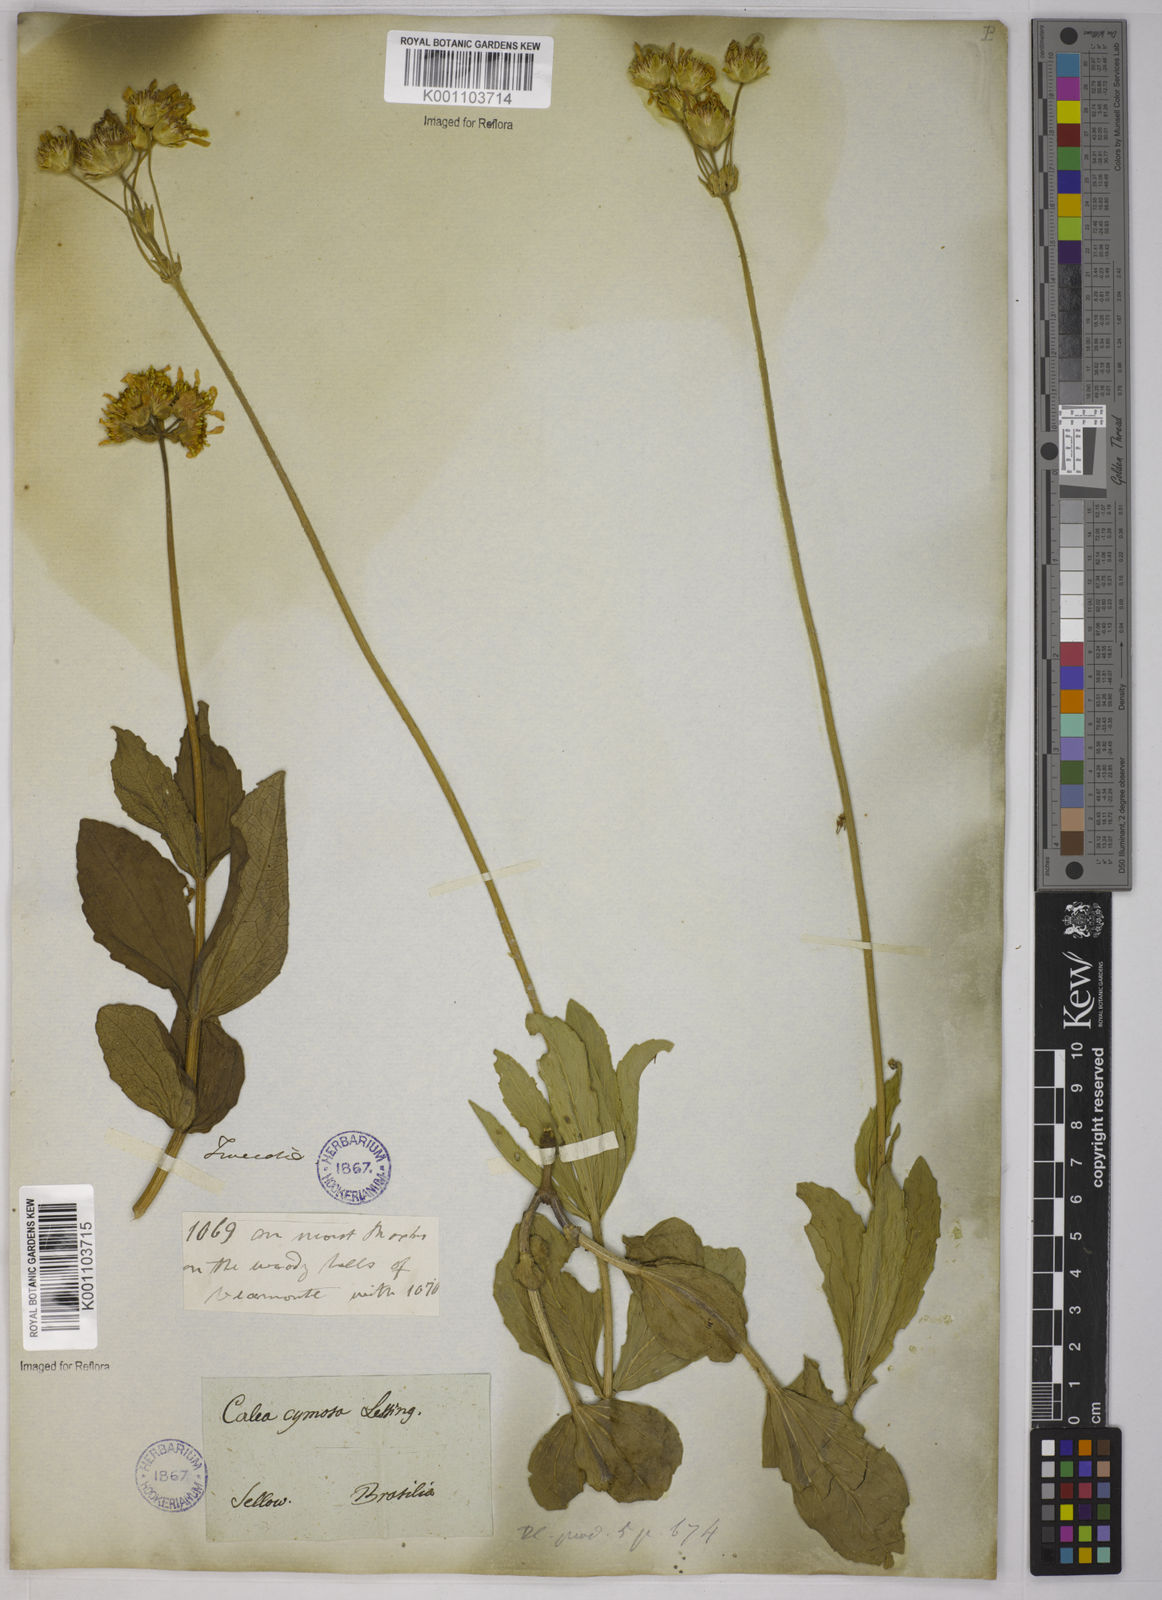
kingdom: Plantae
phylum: Tracheophyta
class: Magnoliopsida
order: Asterales
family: Asteraceae
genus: Calea
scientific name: Calea cymosa
